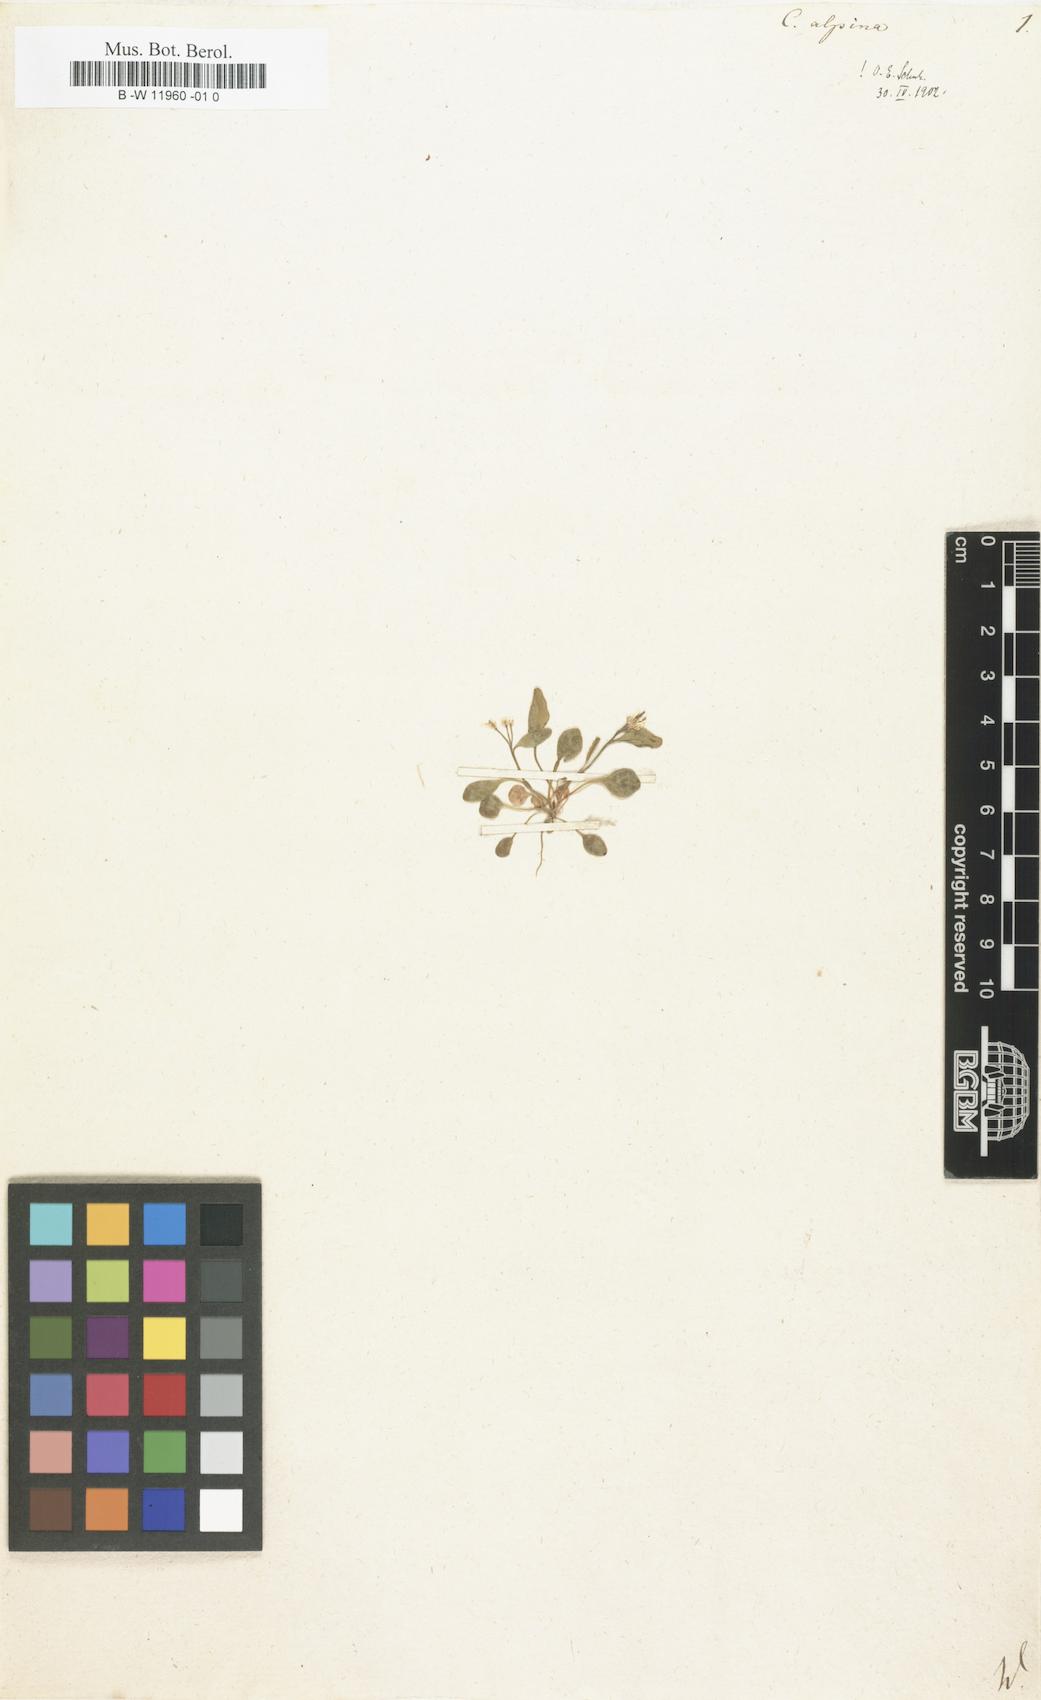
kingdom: Plantae
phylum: Tracheophyta
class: Magnoliopsida
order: Brassicales
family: Brassicaceae
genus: Cardamine
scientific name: Cardamine bellidifolia
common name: Alpine bittercress
